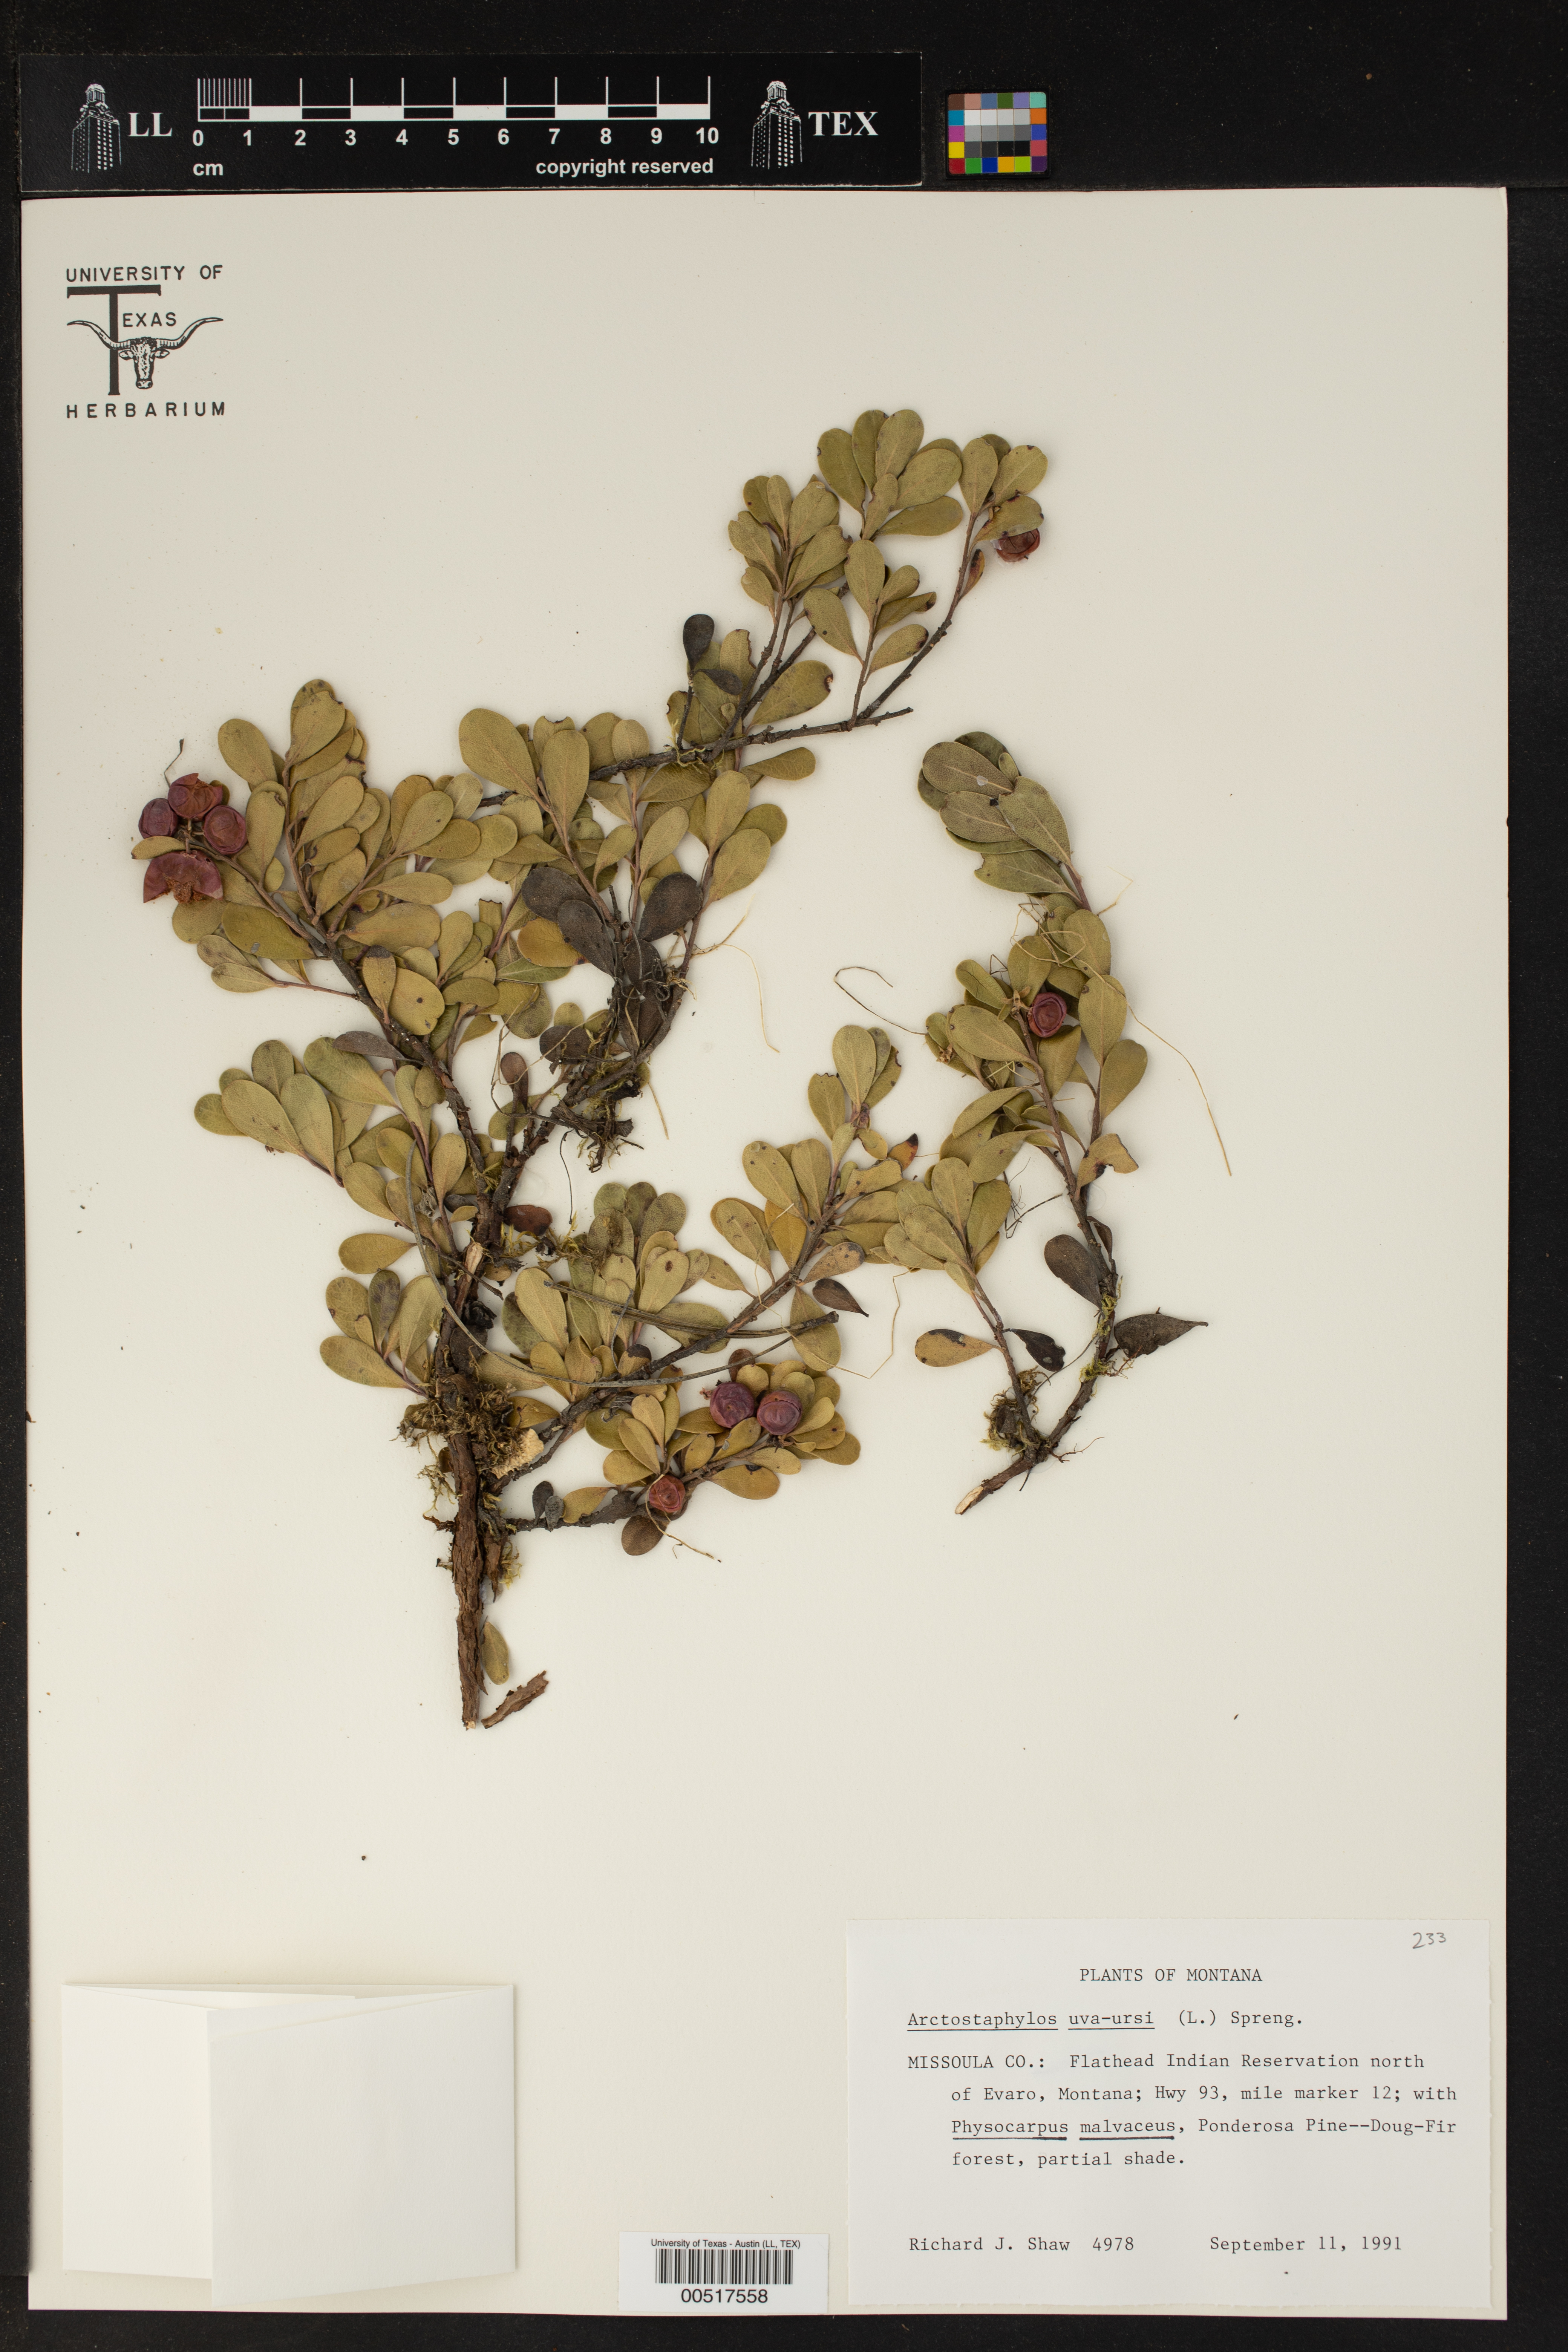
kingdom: Plantae
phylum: Tracheophyta
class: Magnoliopsida
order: Ericales
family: Ericaceae
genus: Arctostaphylos
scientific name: Arctostaphylos uva-ursi
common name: Bearberry
